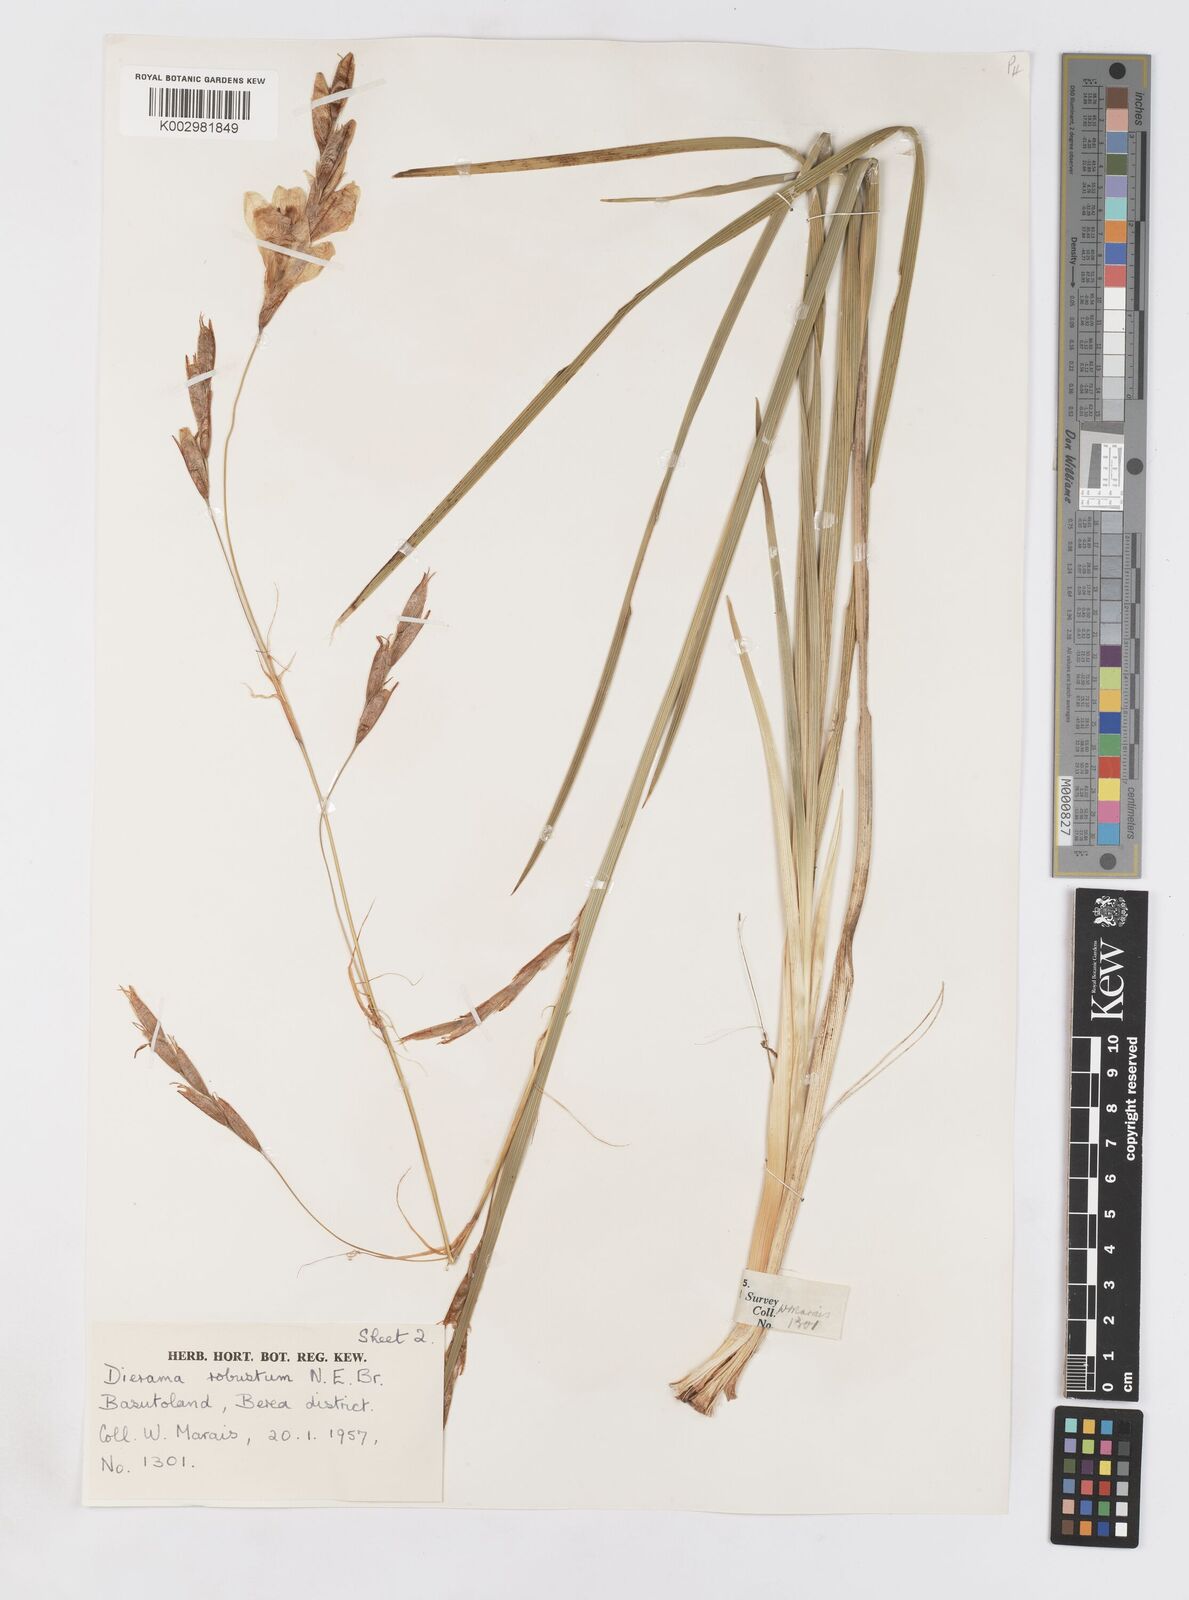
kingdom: Plantae
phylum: Tracheophyta
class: Liliopsida
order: Asparagales
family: Iridaceae
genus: Dierama
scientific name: Dierama robustum
